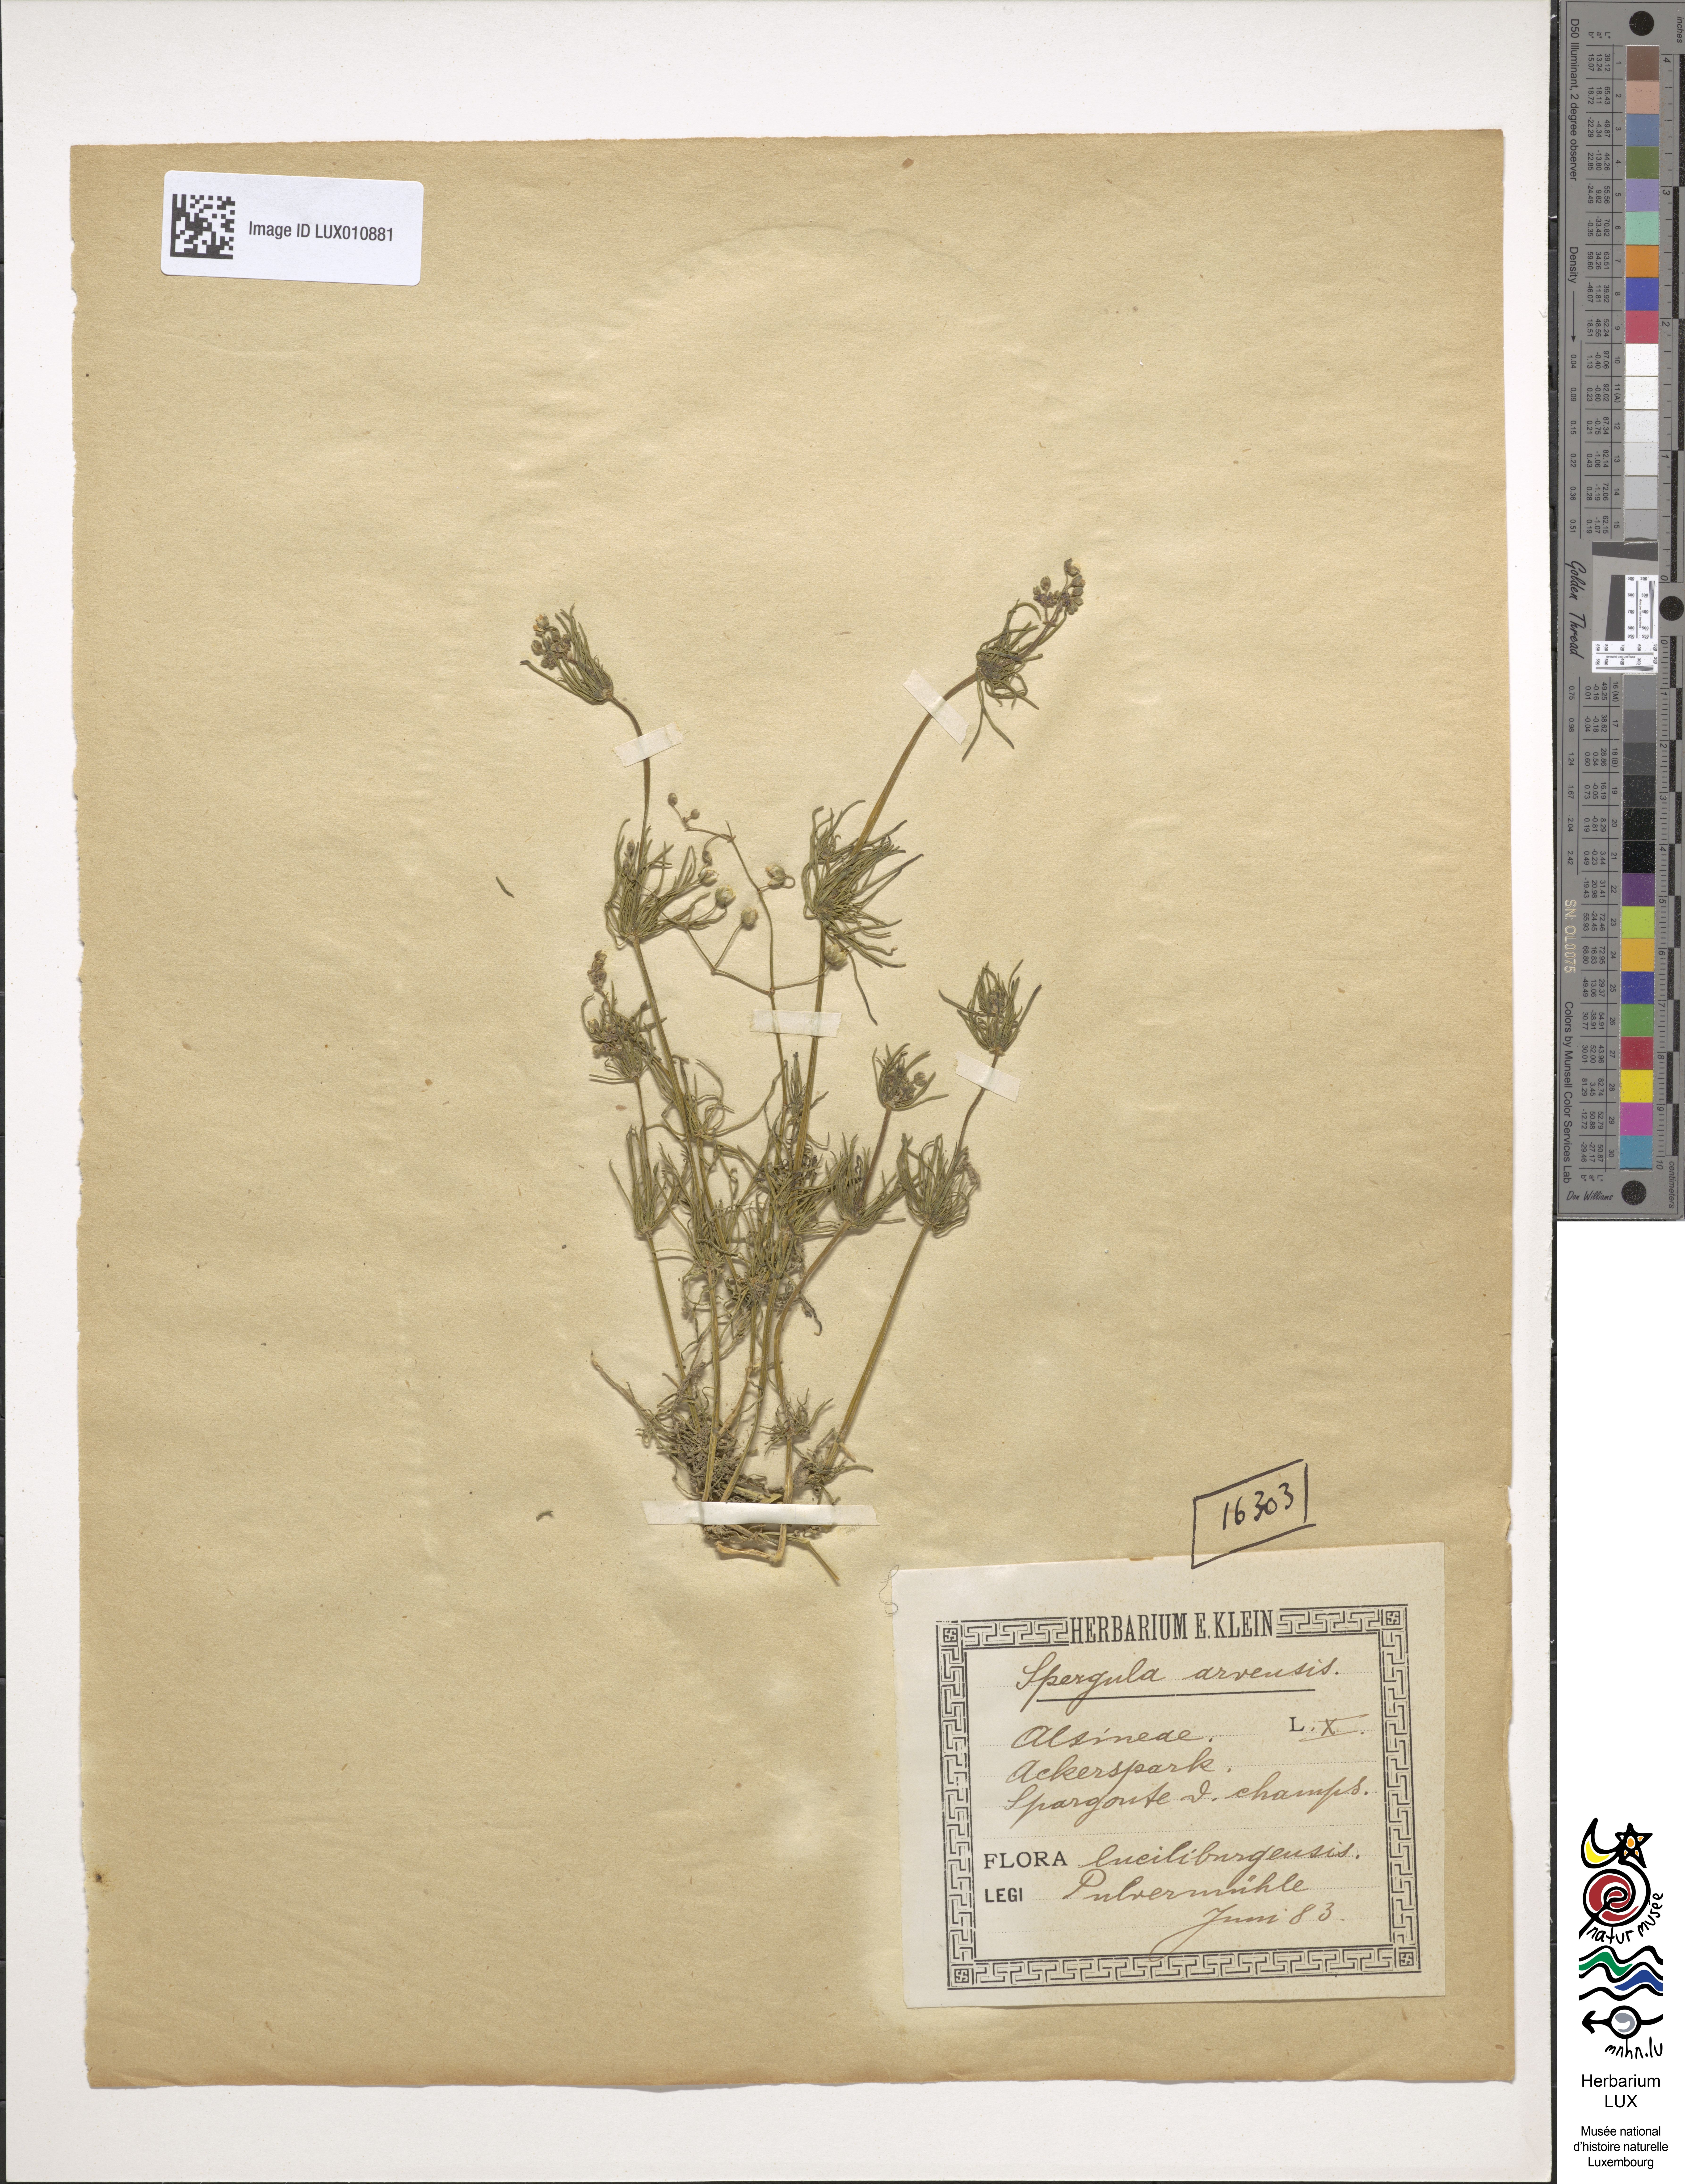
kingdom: Plantae
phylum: Tracheophyta
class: Magnoliopsida
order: Caryophyllales
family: Caryophyllaceae
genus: Spergula
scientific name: Spergula arvensis
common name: Corn spurrey
